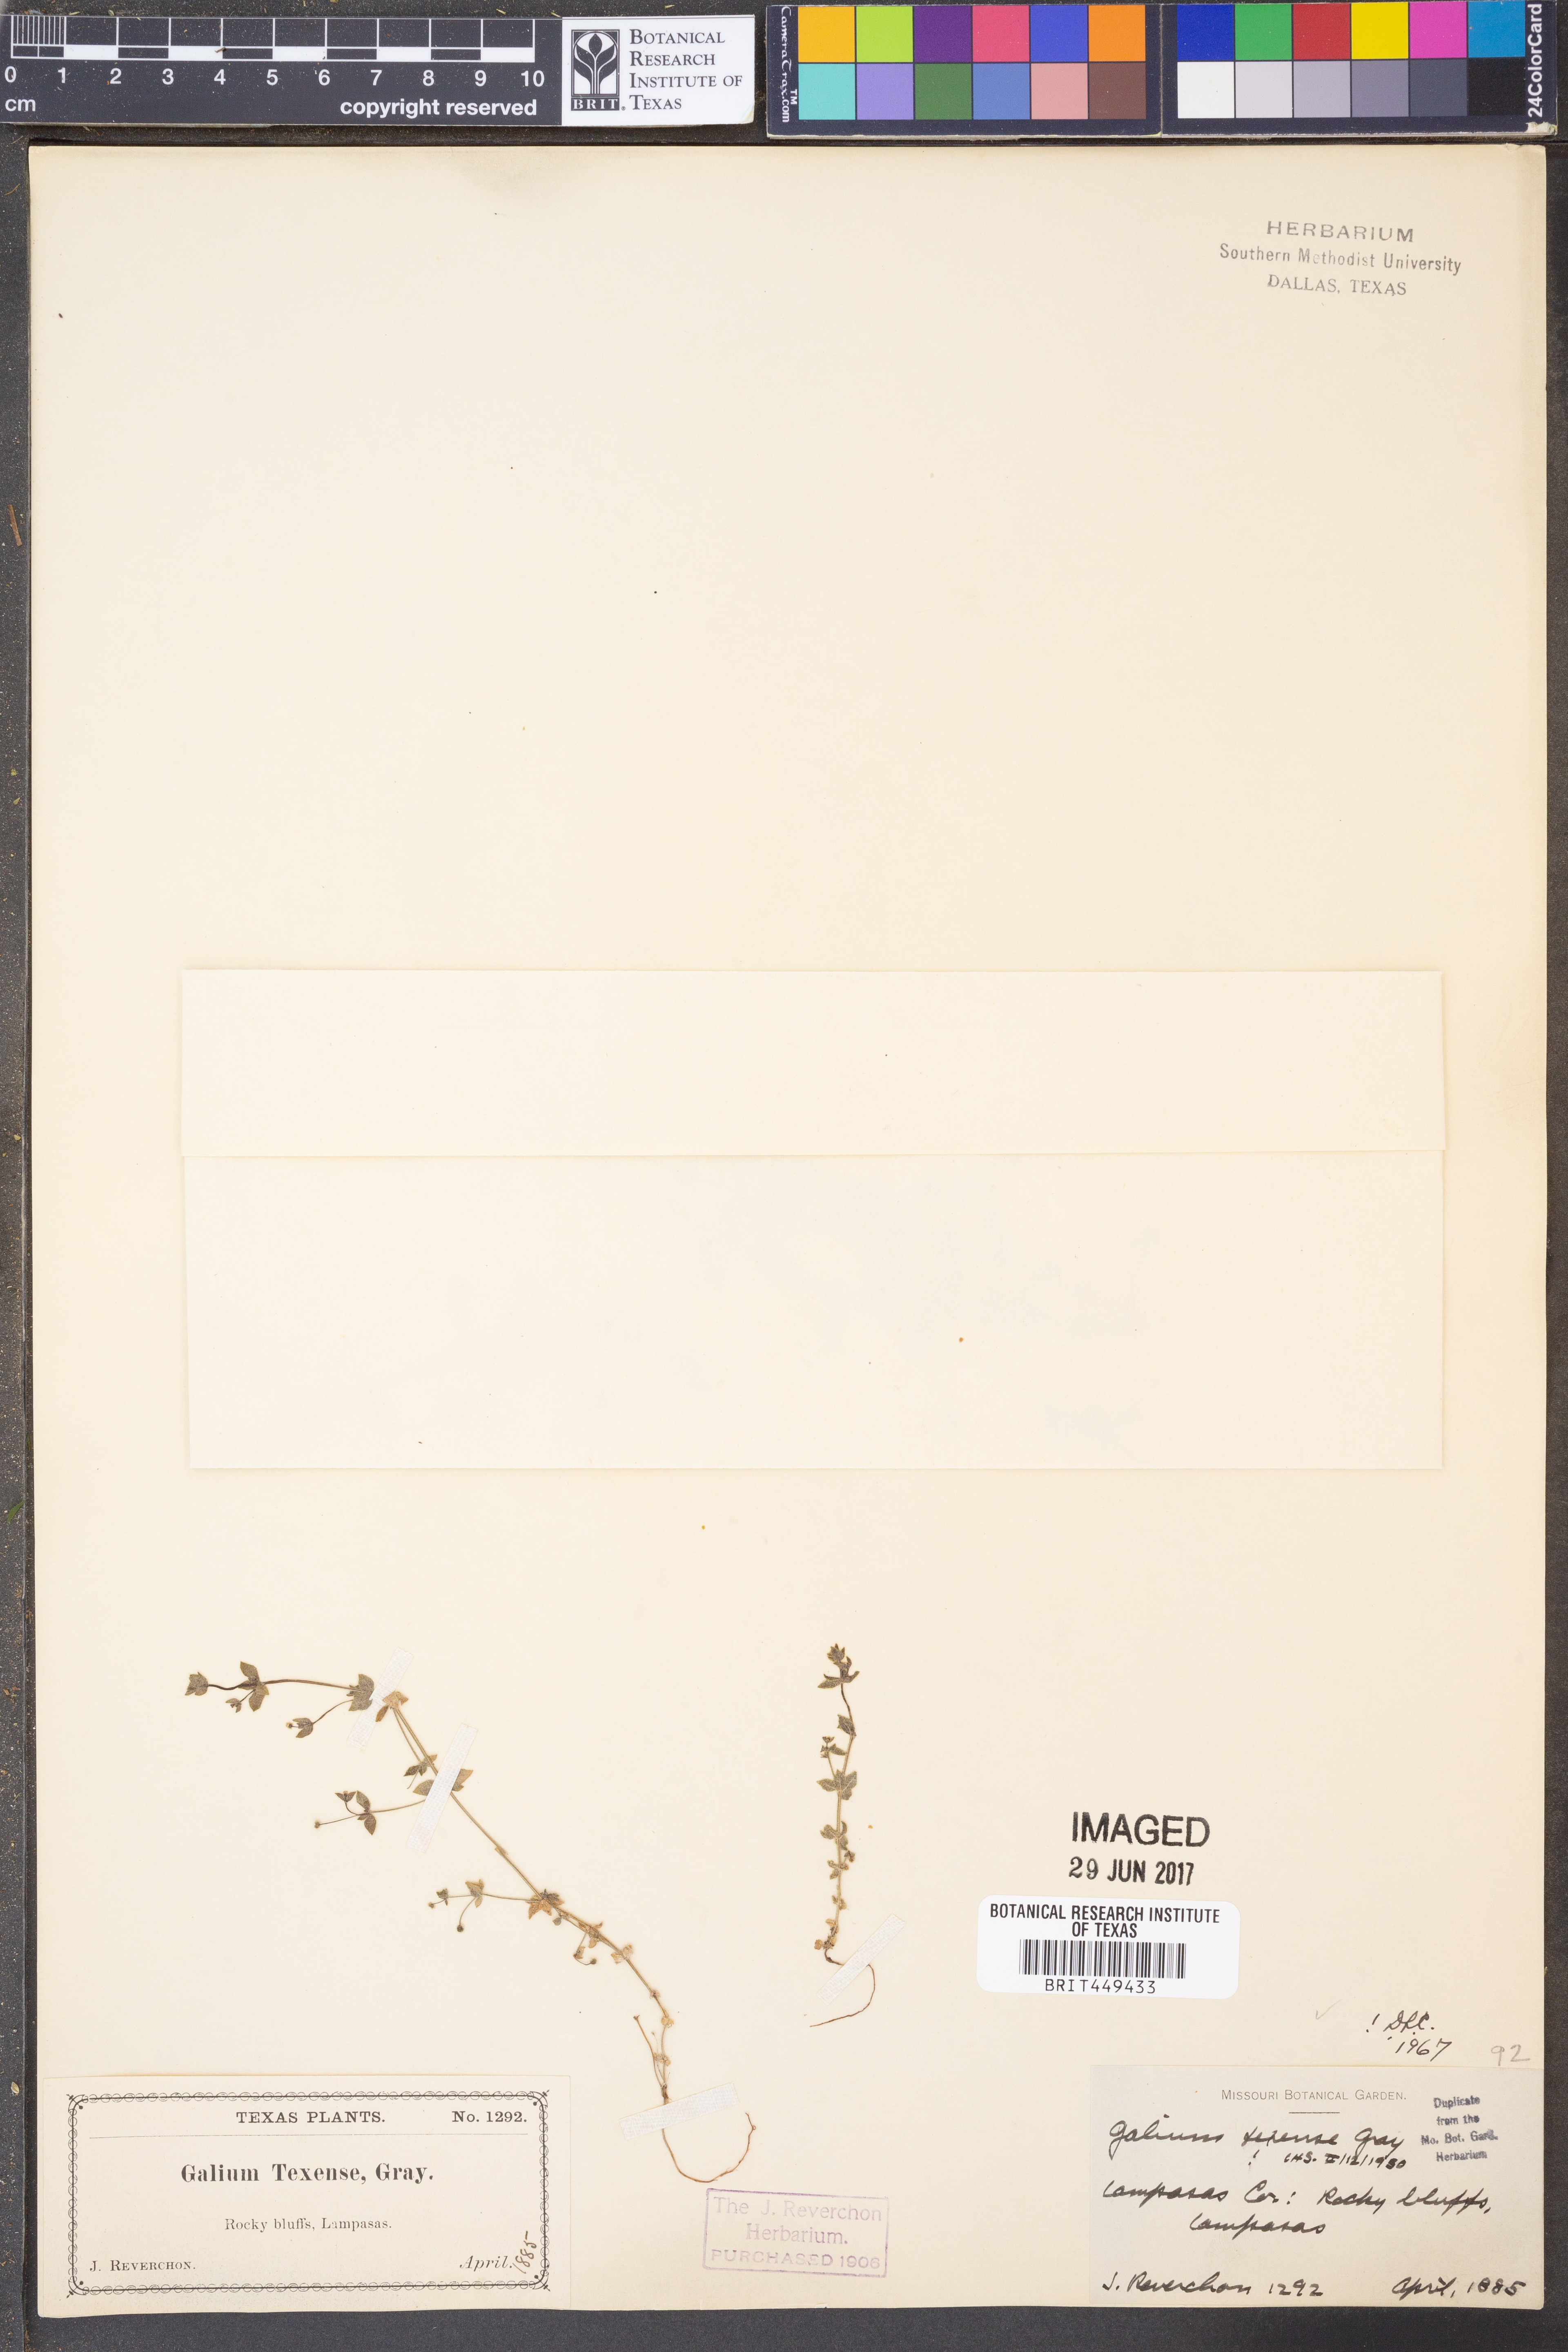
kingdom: Plantae
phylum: Tracheophyta
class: Magnoliopsida
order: Gentianales
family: Rubiaceae
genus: Galium
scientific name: Galium texense
